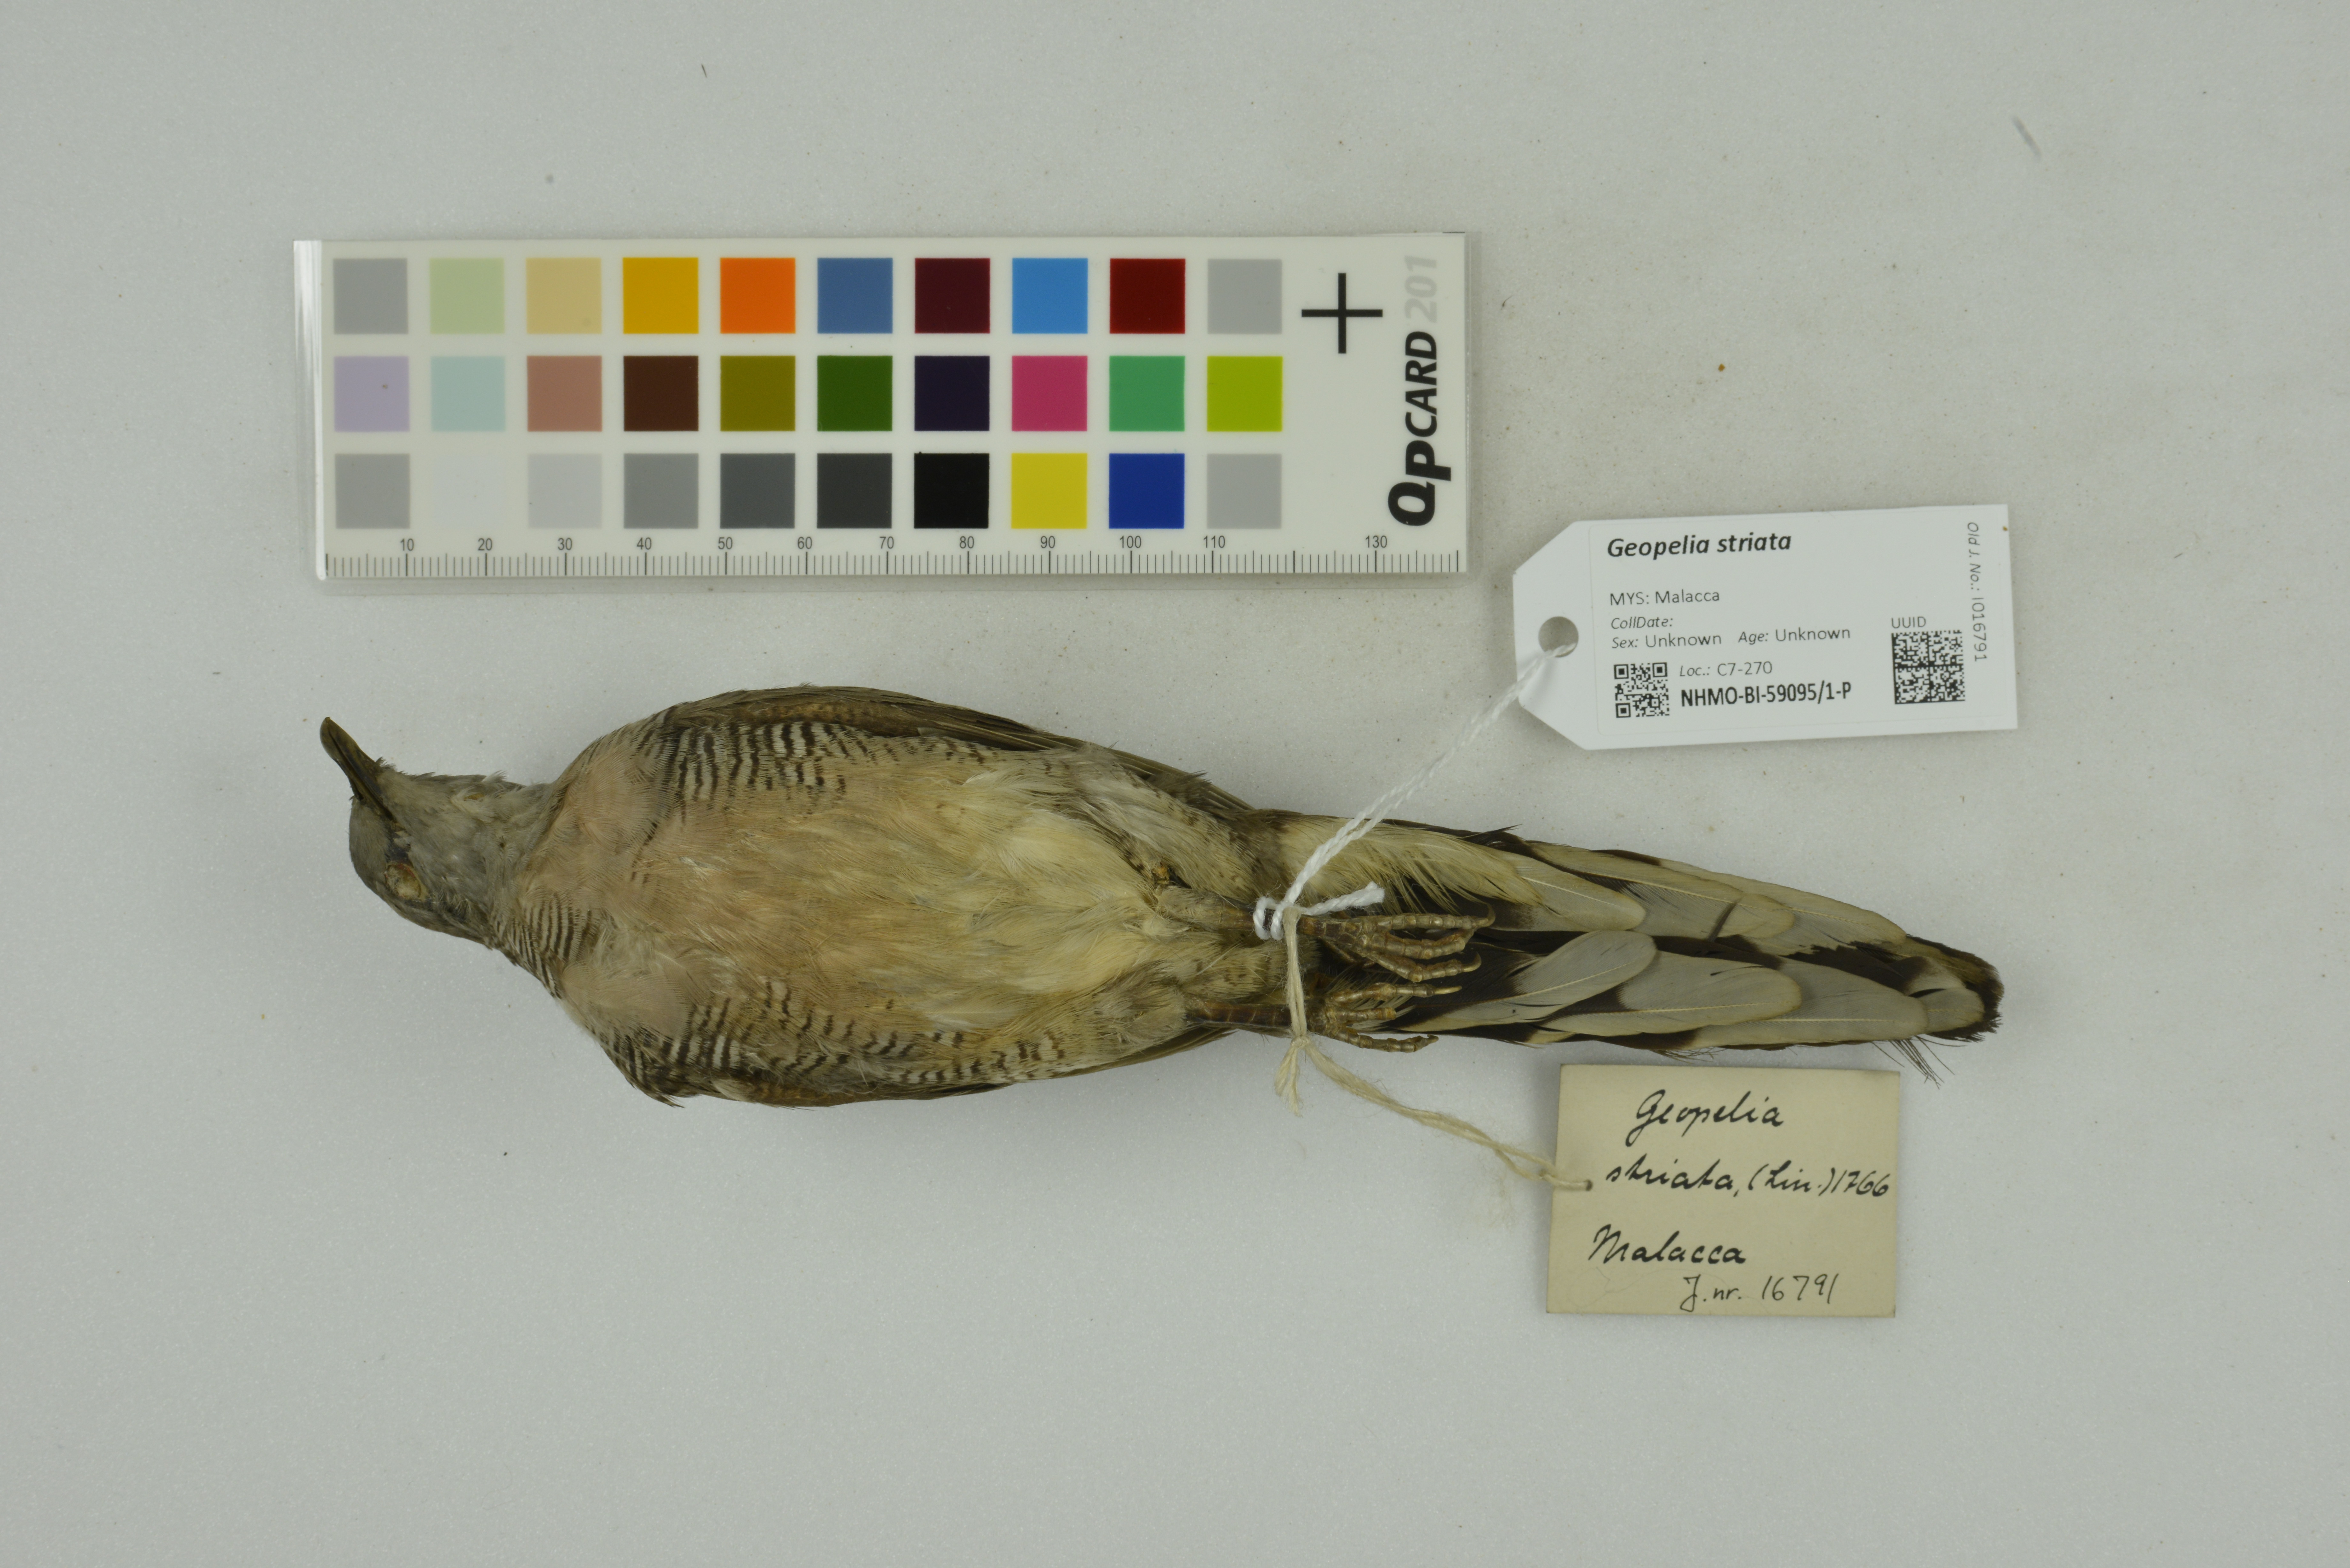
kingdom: Animalia
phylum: Chordata
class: Aves
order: Columbiformes
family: Columbidae
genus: Geopelia
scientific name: Geopelia striata
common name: Zebra dove
